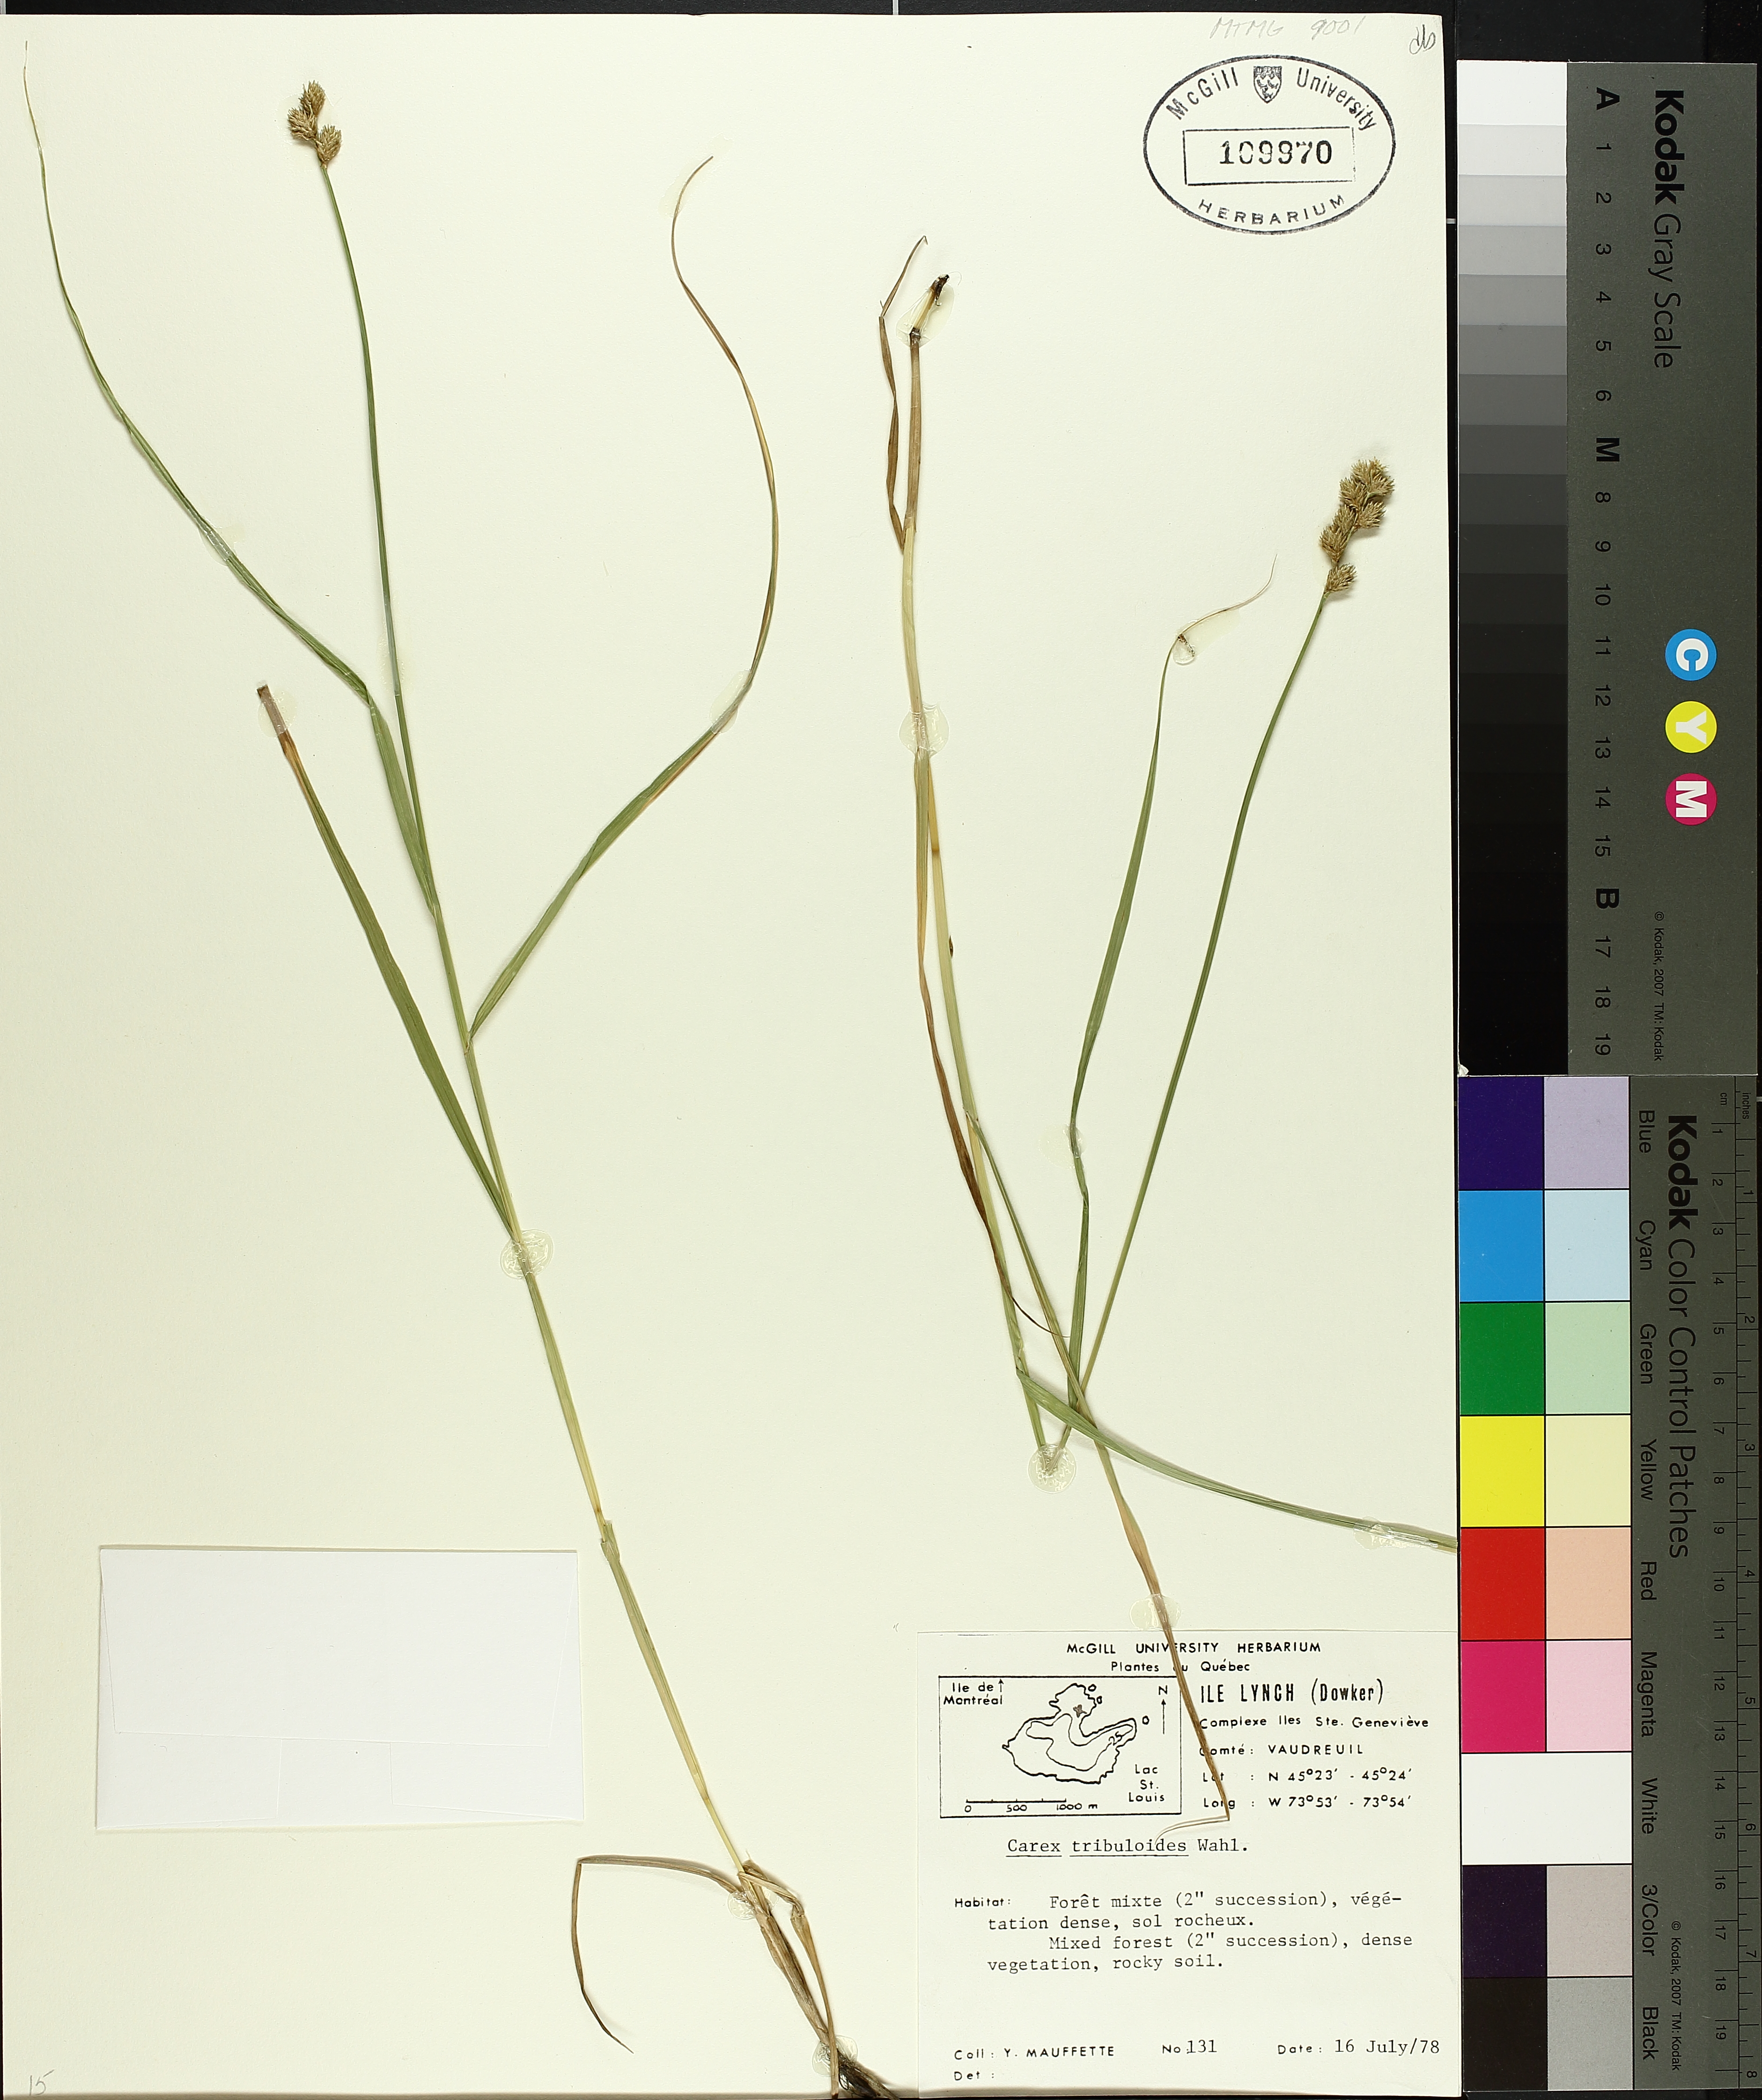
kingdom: Plantae
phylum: Tracheophyta
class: Liliopsida
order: Poales
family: Cyperaceae
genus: Carex
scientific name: Carex tribuloides
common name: Blunt broom sedge
